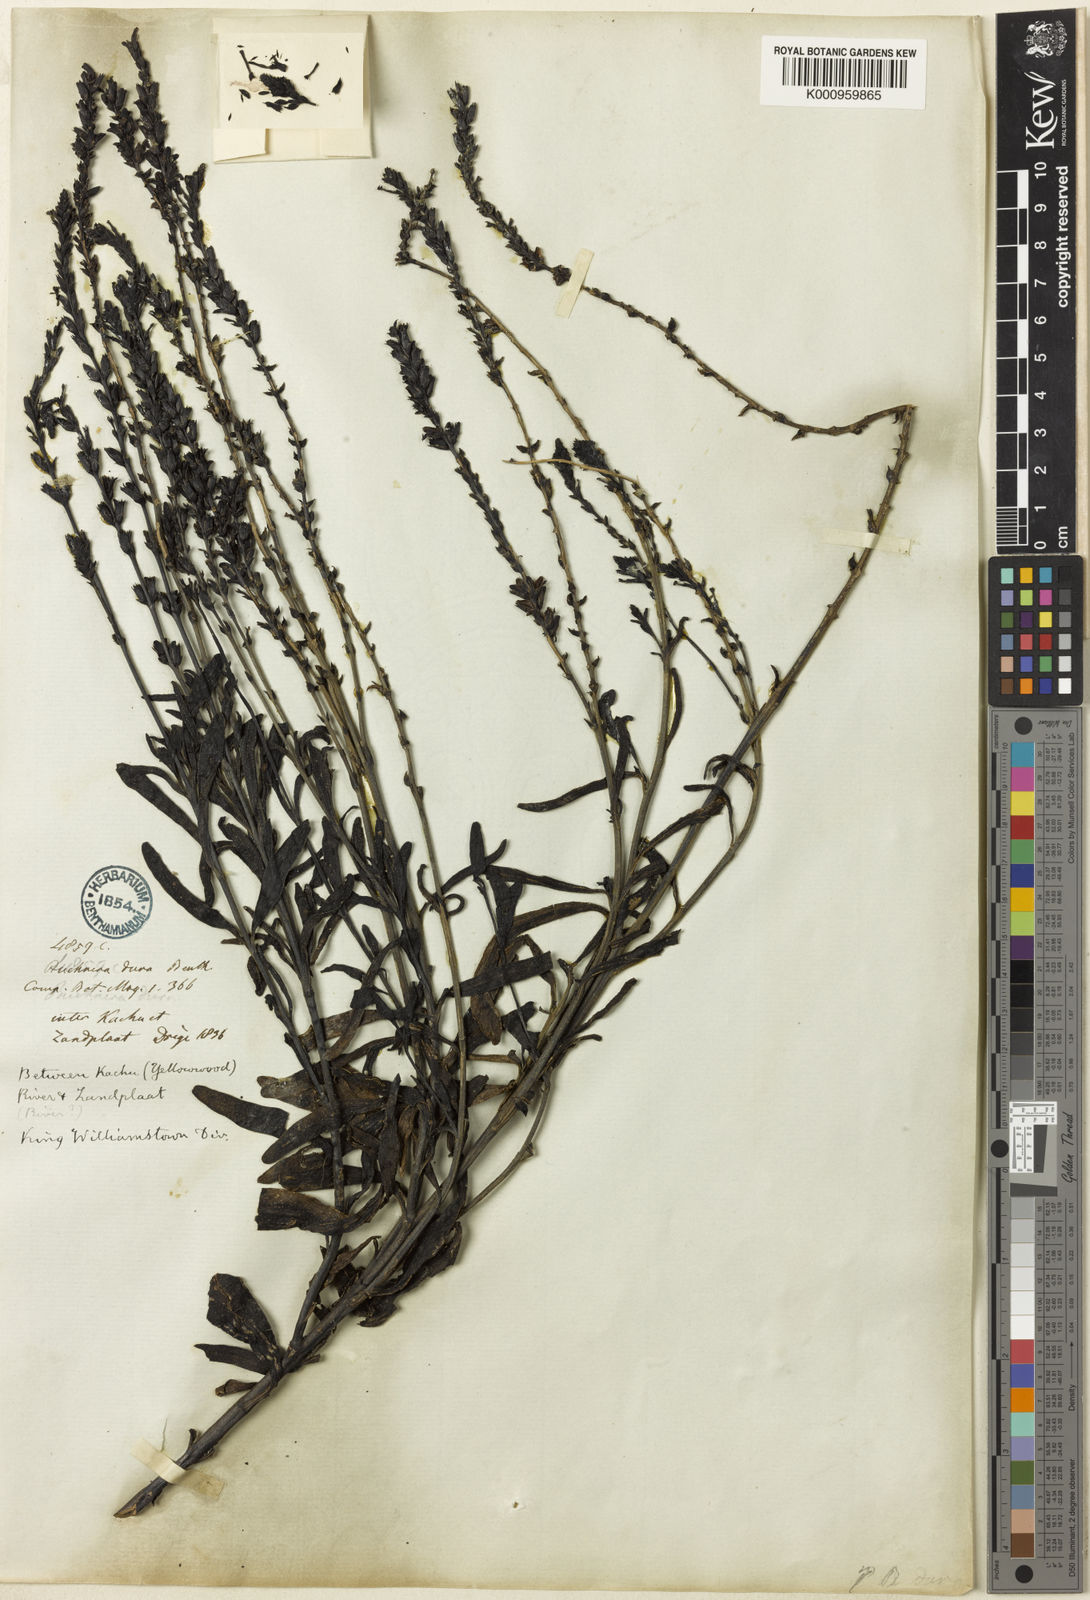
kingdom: Plantae
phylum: Tracheophyta
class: Magnoliopsida
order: Lamiales
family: Orobanchaceae
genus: Buchnera
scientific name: Buchnera dura
